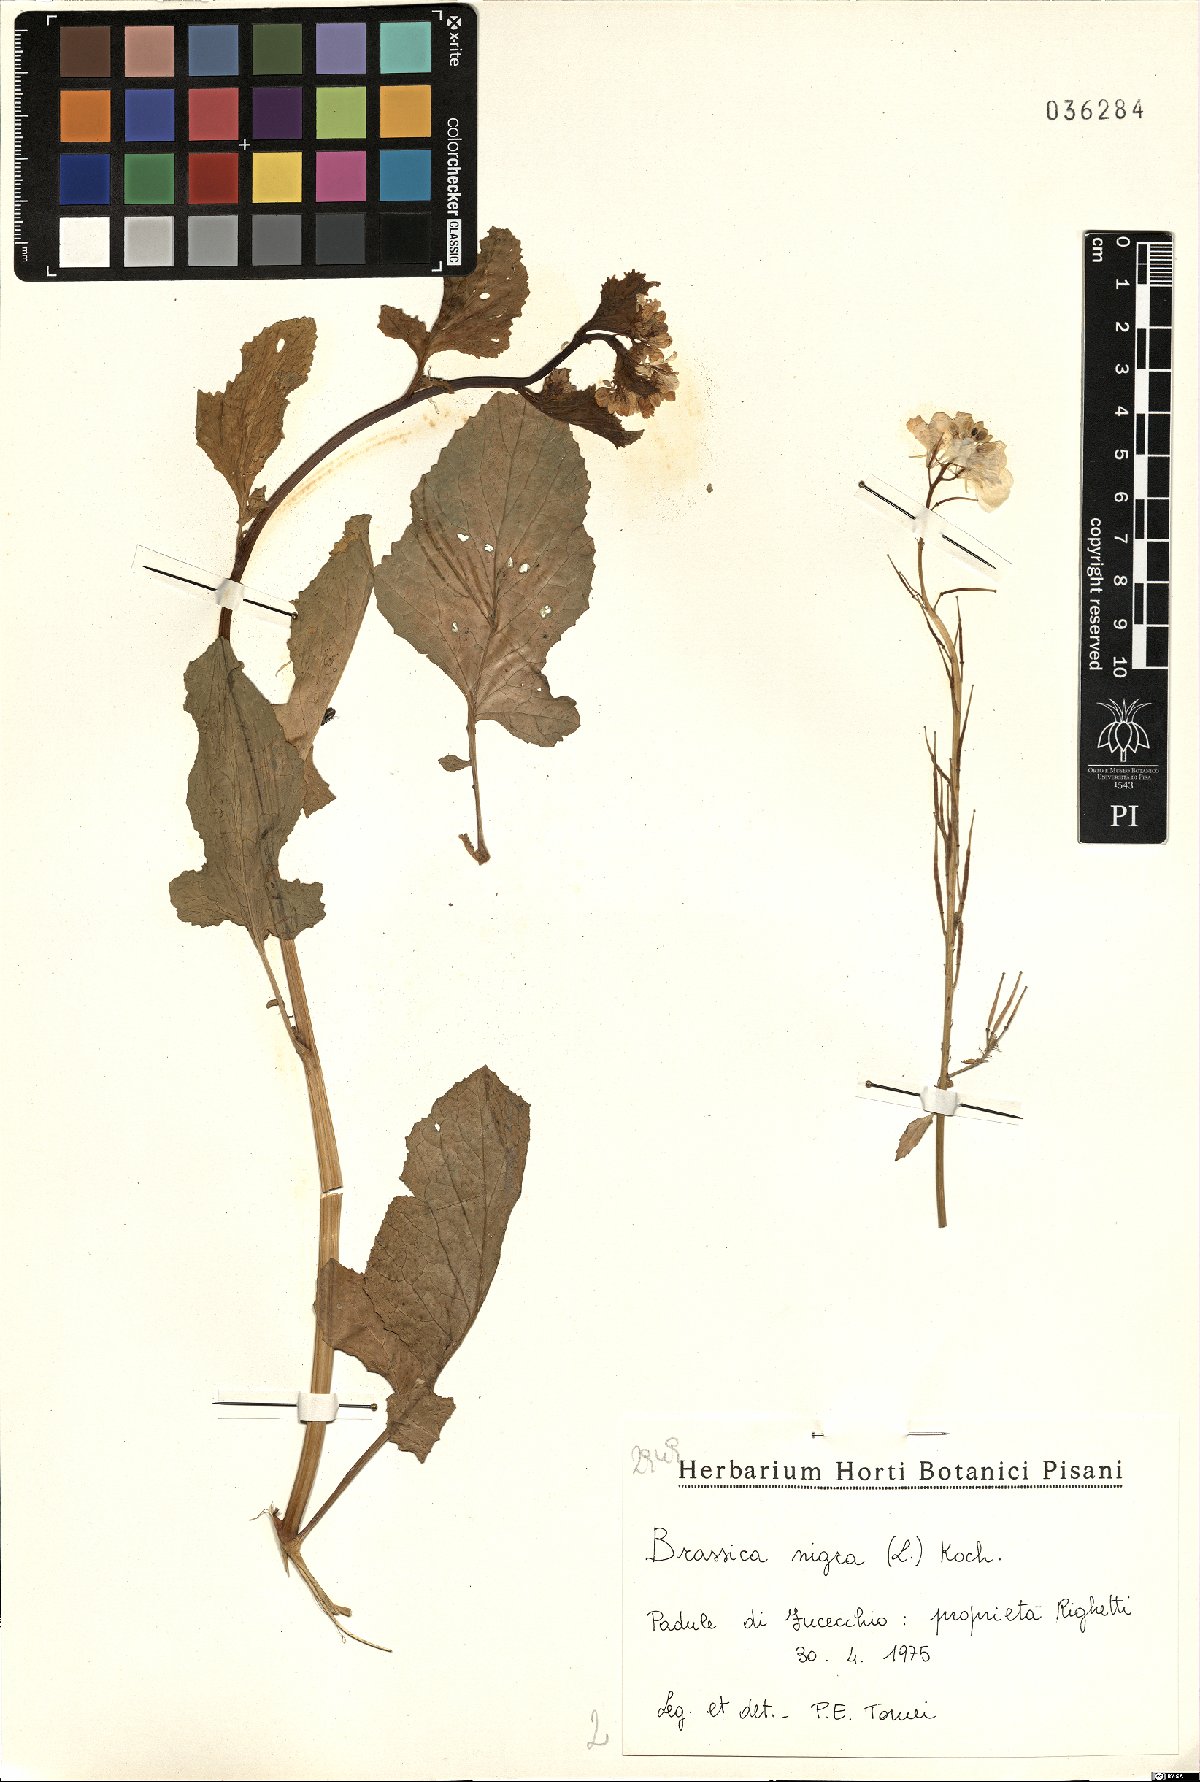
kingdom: Plantae
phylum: Tracheophyta
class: Magnoliopsida
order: Brassicales
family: Brassicaceae
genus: Brassica
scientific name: Brassica nigra
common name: Black mustard
